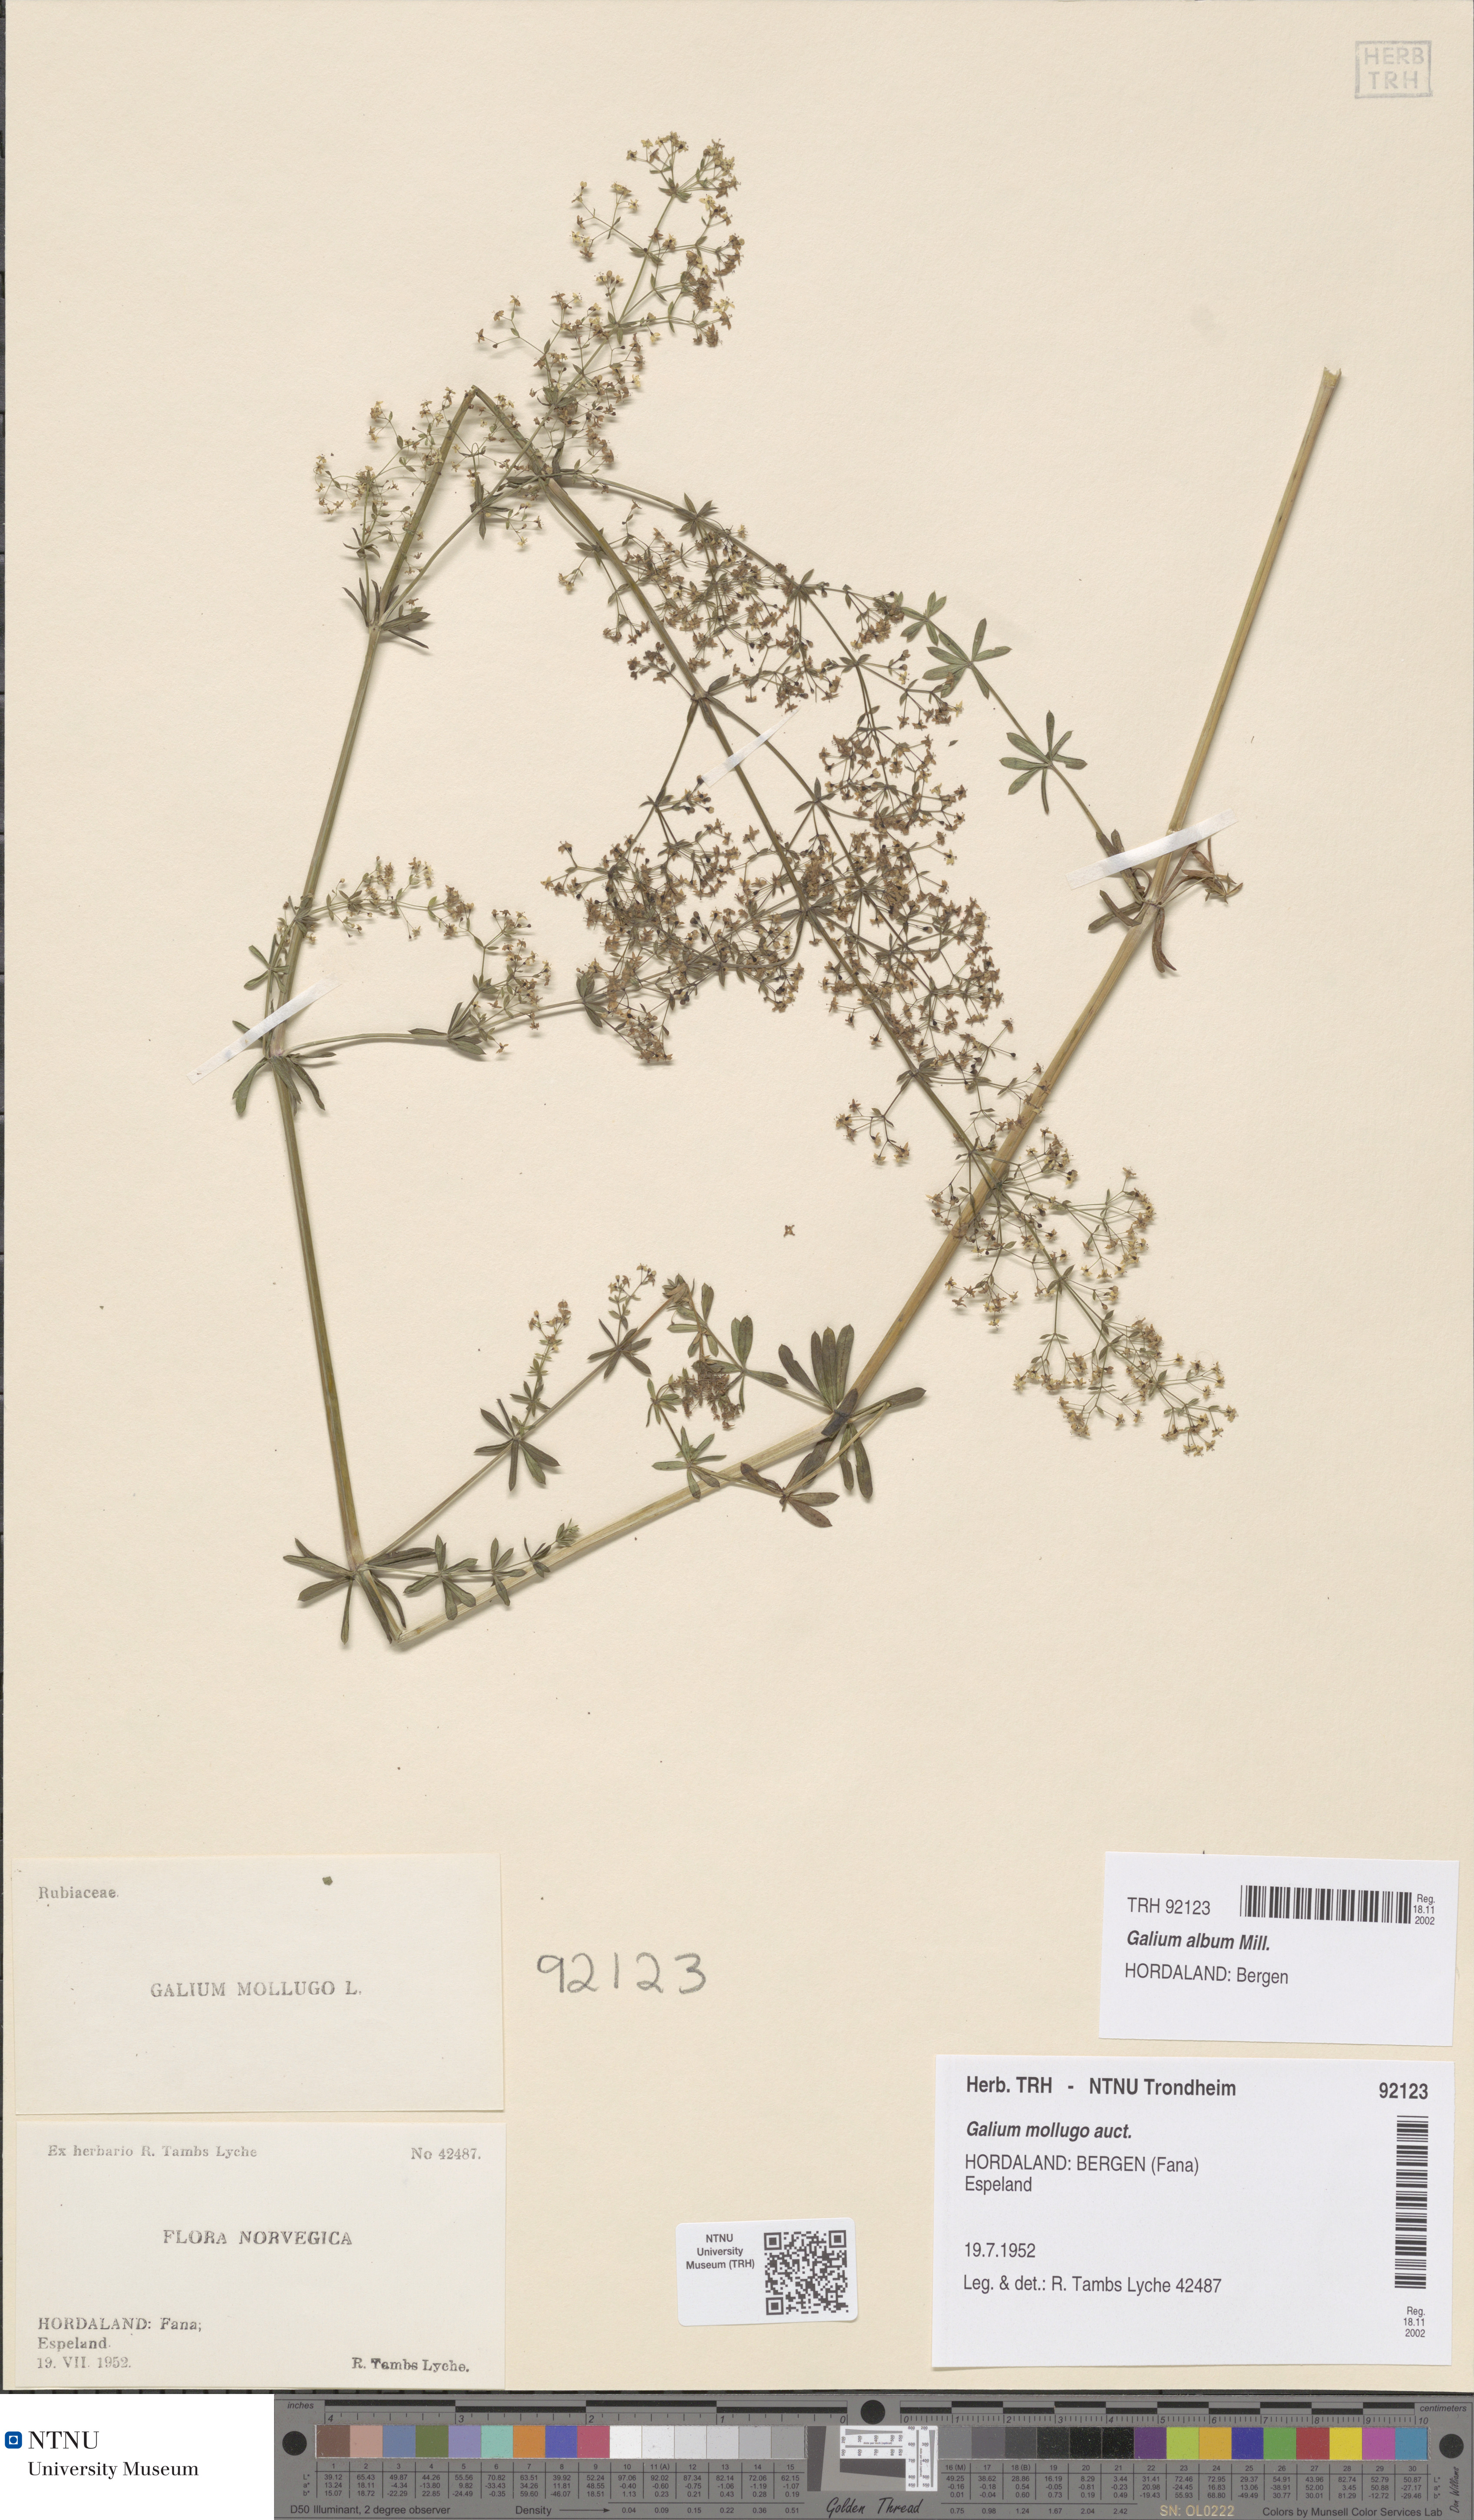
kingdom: Plantae
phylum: Tracheophyta
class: Magnoliopsida
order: Gentianales
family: Rubiaceae
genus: Galium
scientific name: Galium album
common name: White bedstraw
